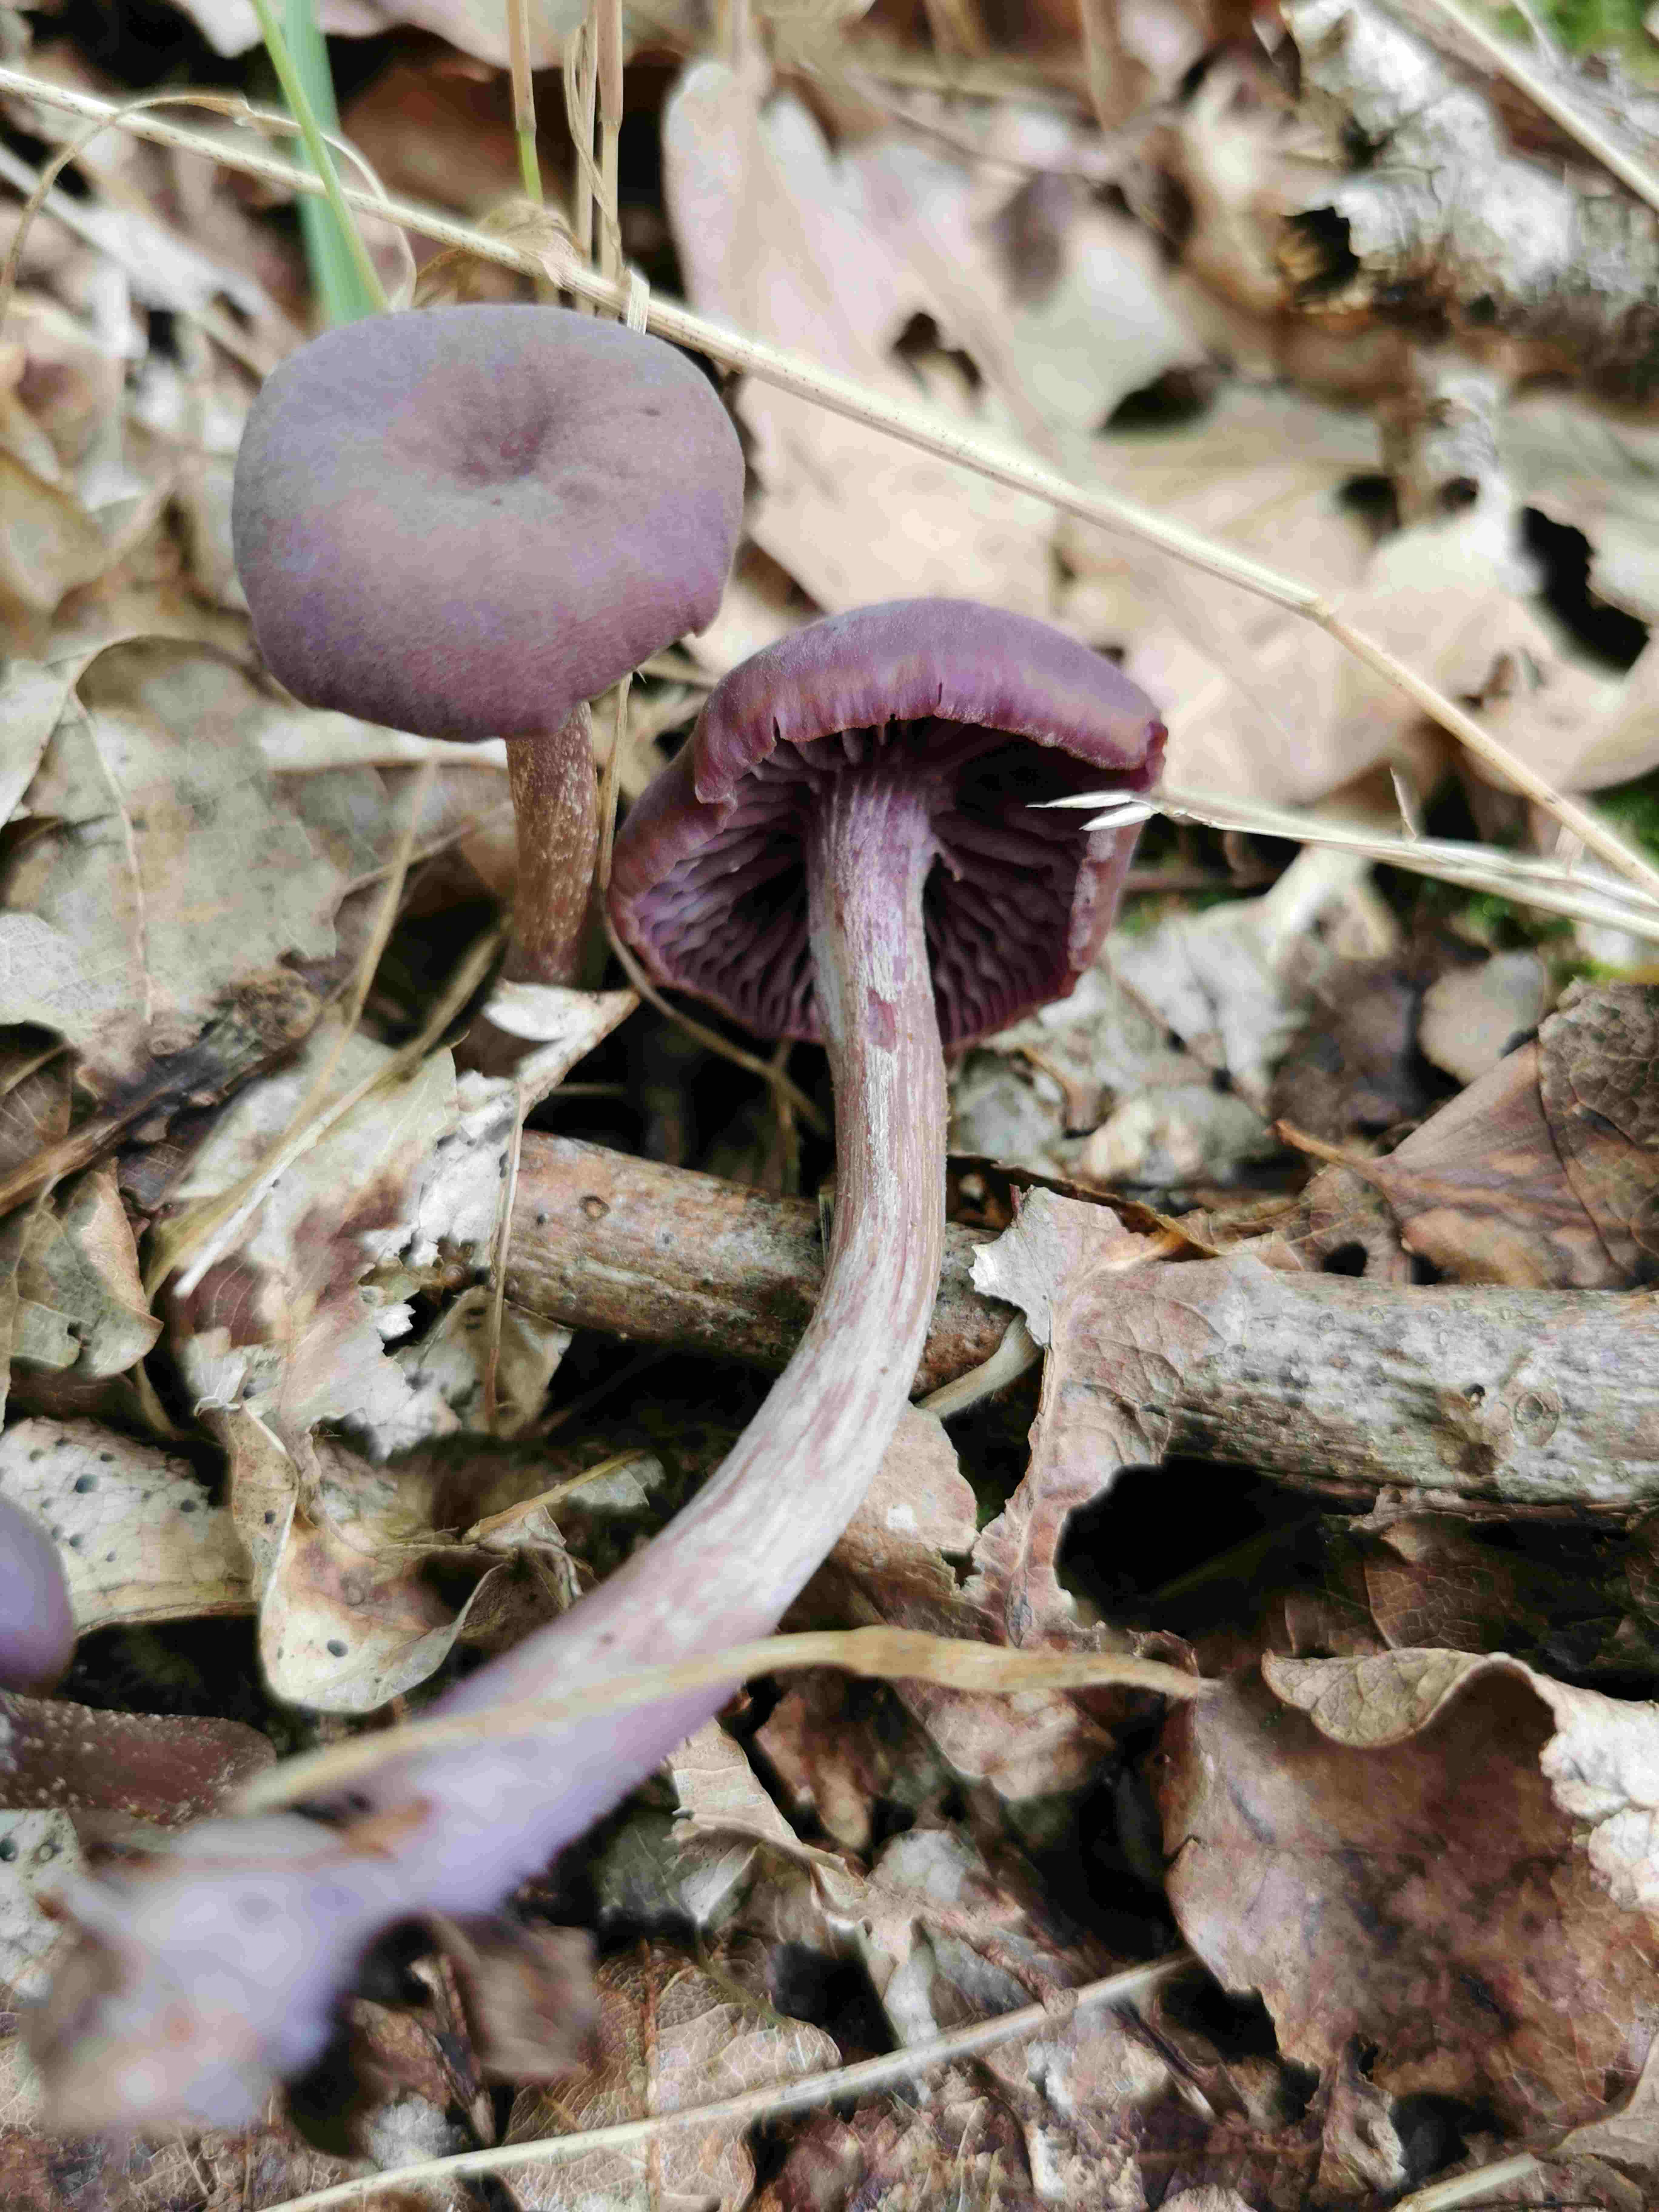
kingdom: Fungi
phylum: Basidiomycota
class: Agaricomycetes
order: Agaricales
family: Hydnangiaceae
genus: Laccaria
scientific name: Laccaria amethystina
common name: violet ametysthat
